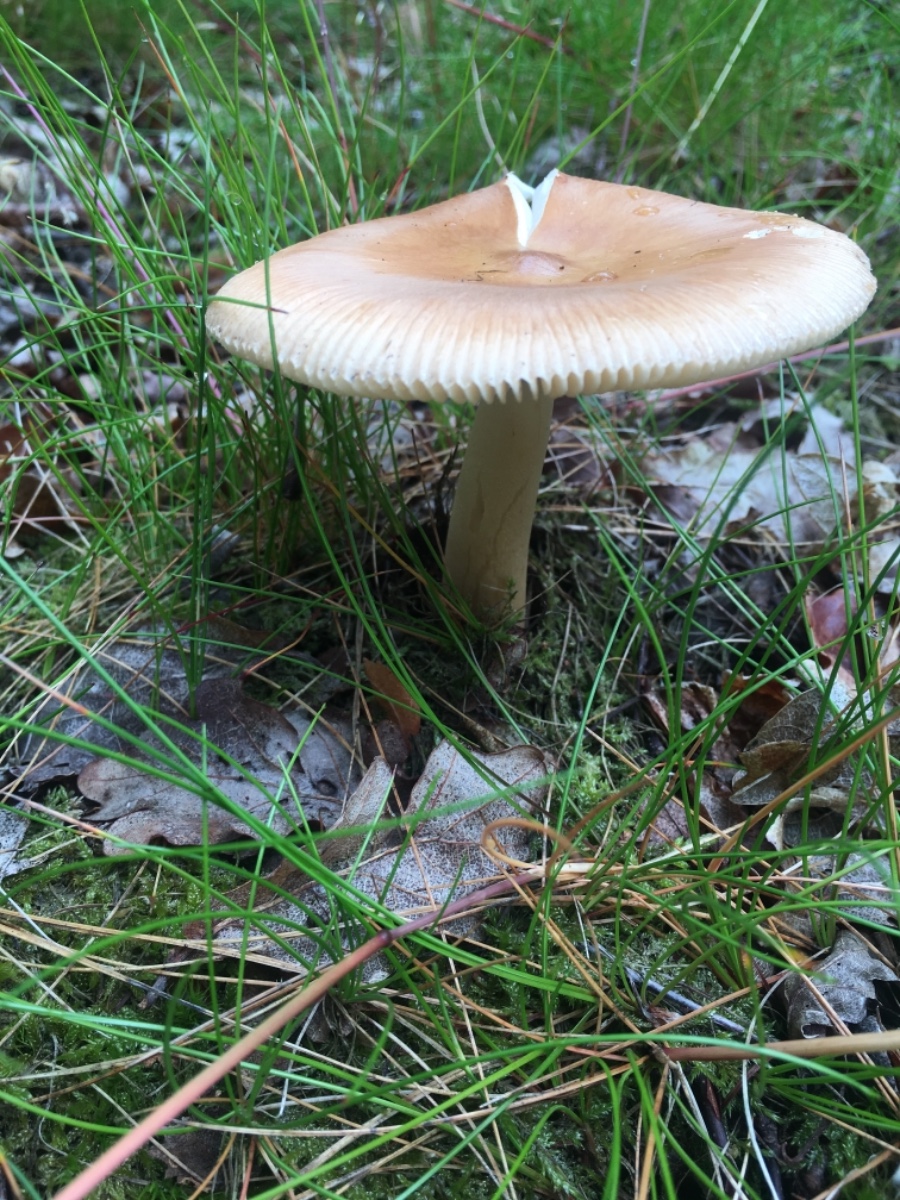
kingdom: Fungi
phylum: Basidiomycota
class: Agaricomycetes
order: Agaricales
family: Amanitaceae
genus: Amanita
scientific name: Amanita fulva
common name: brun kam-fluesvamp
